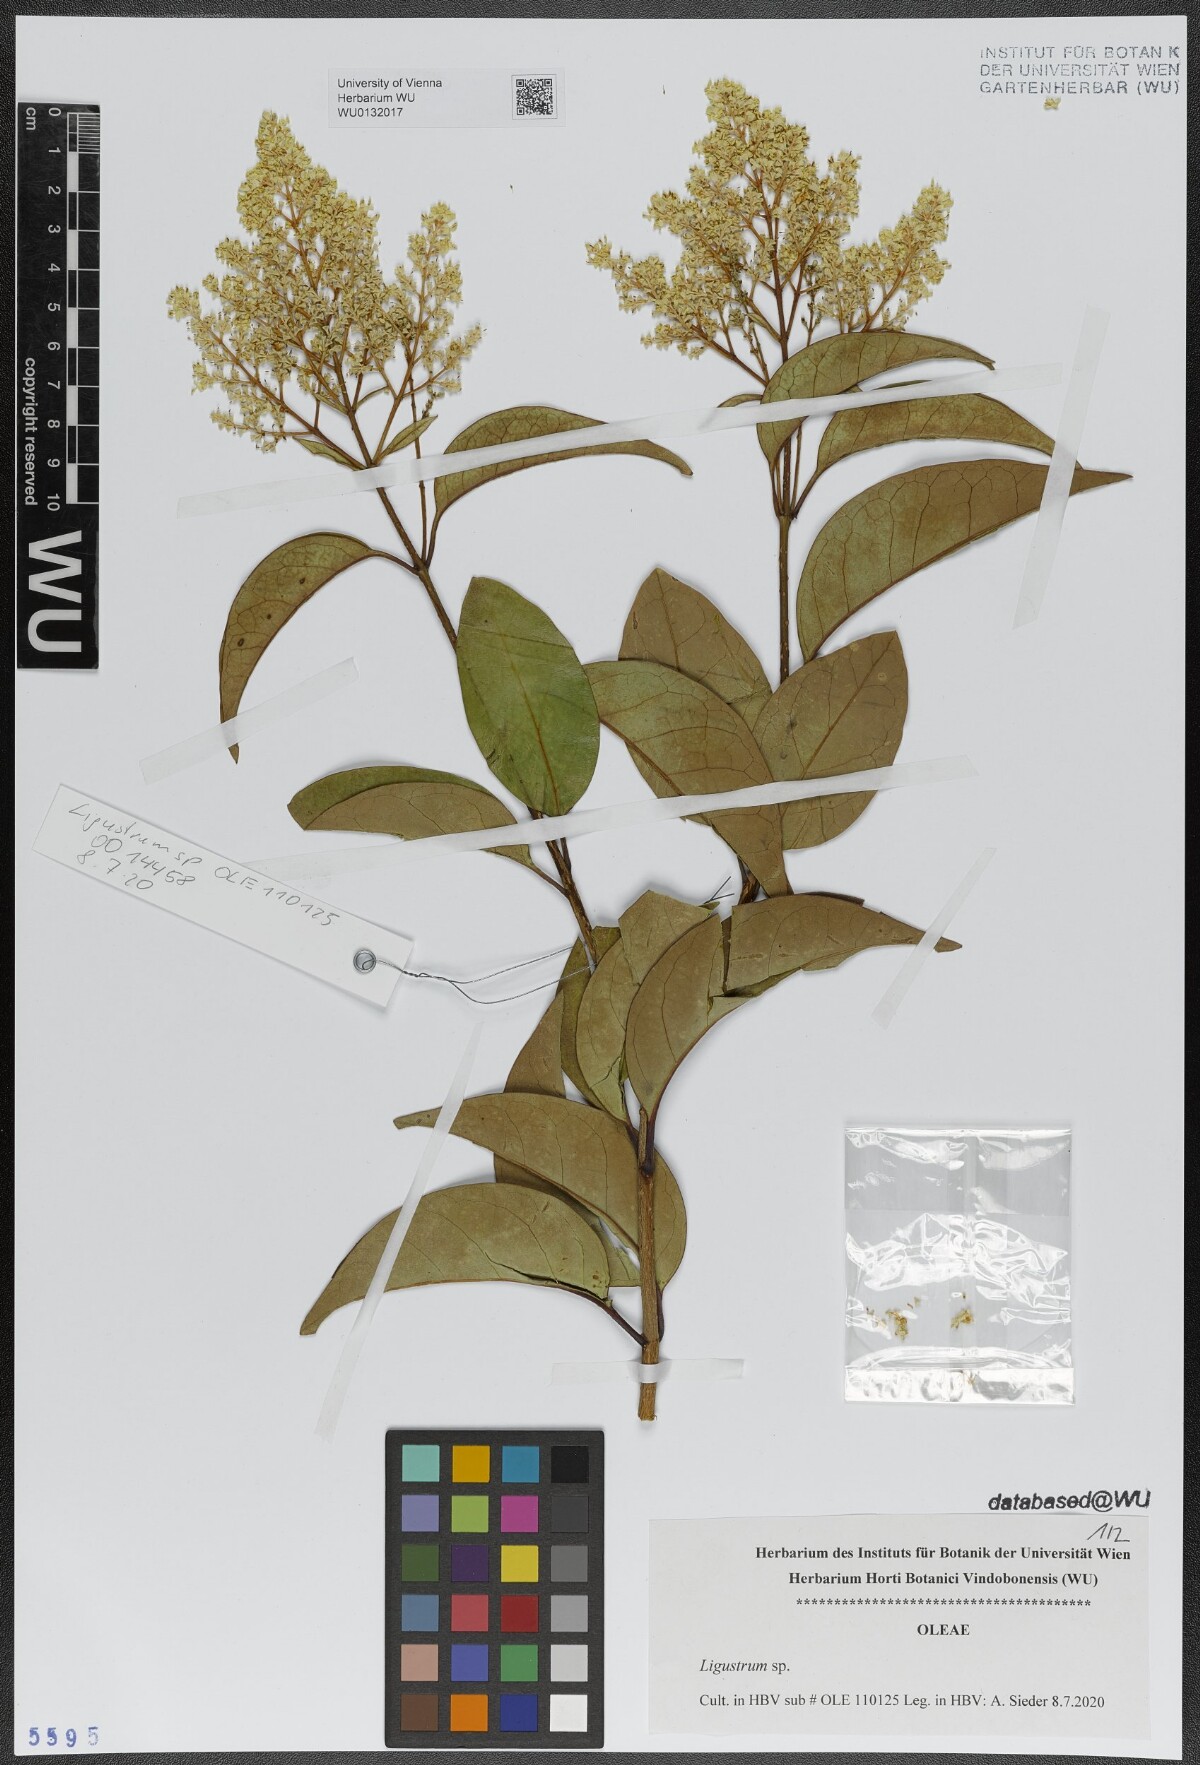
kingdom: Plantae
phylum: Tracheophyta
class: Magnoliopsida
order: Lamiales
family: Oleaceae
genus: Ligustrum
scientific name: Ligustrum
